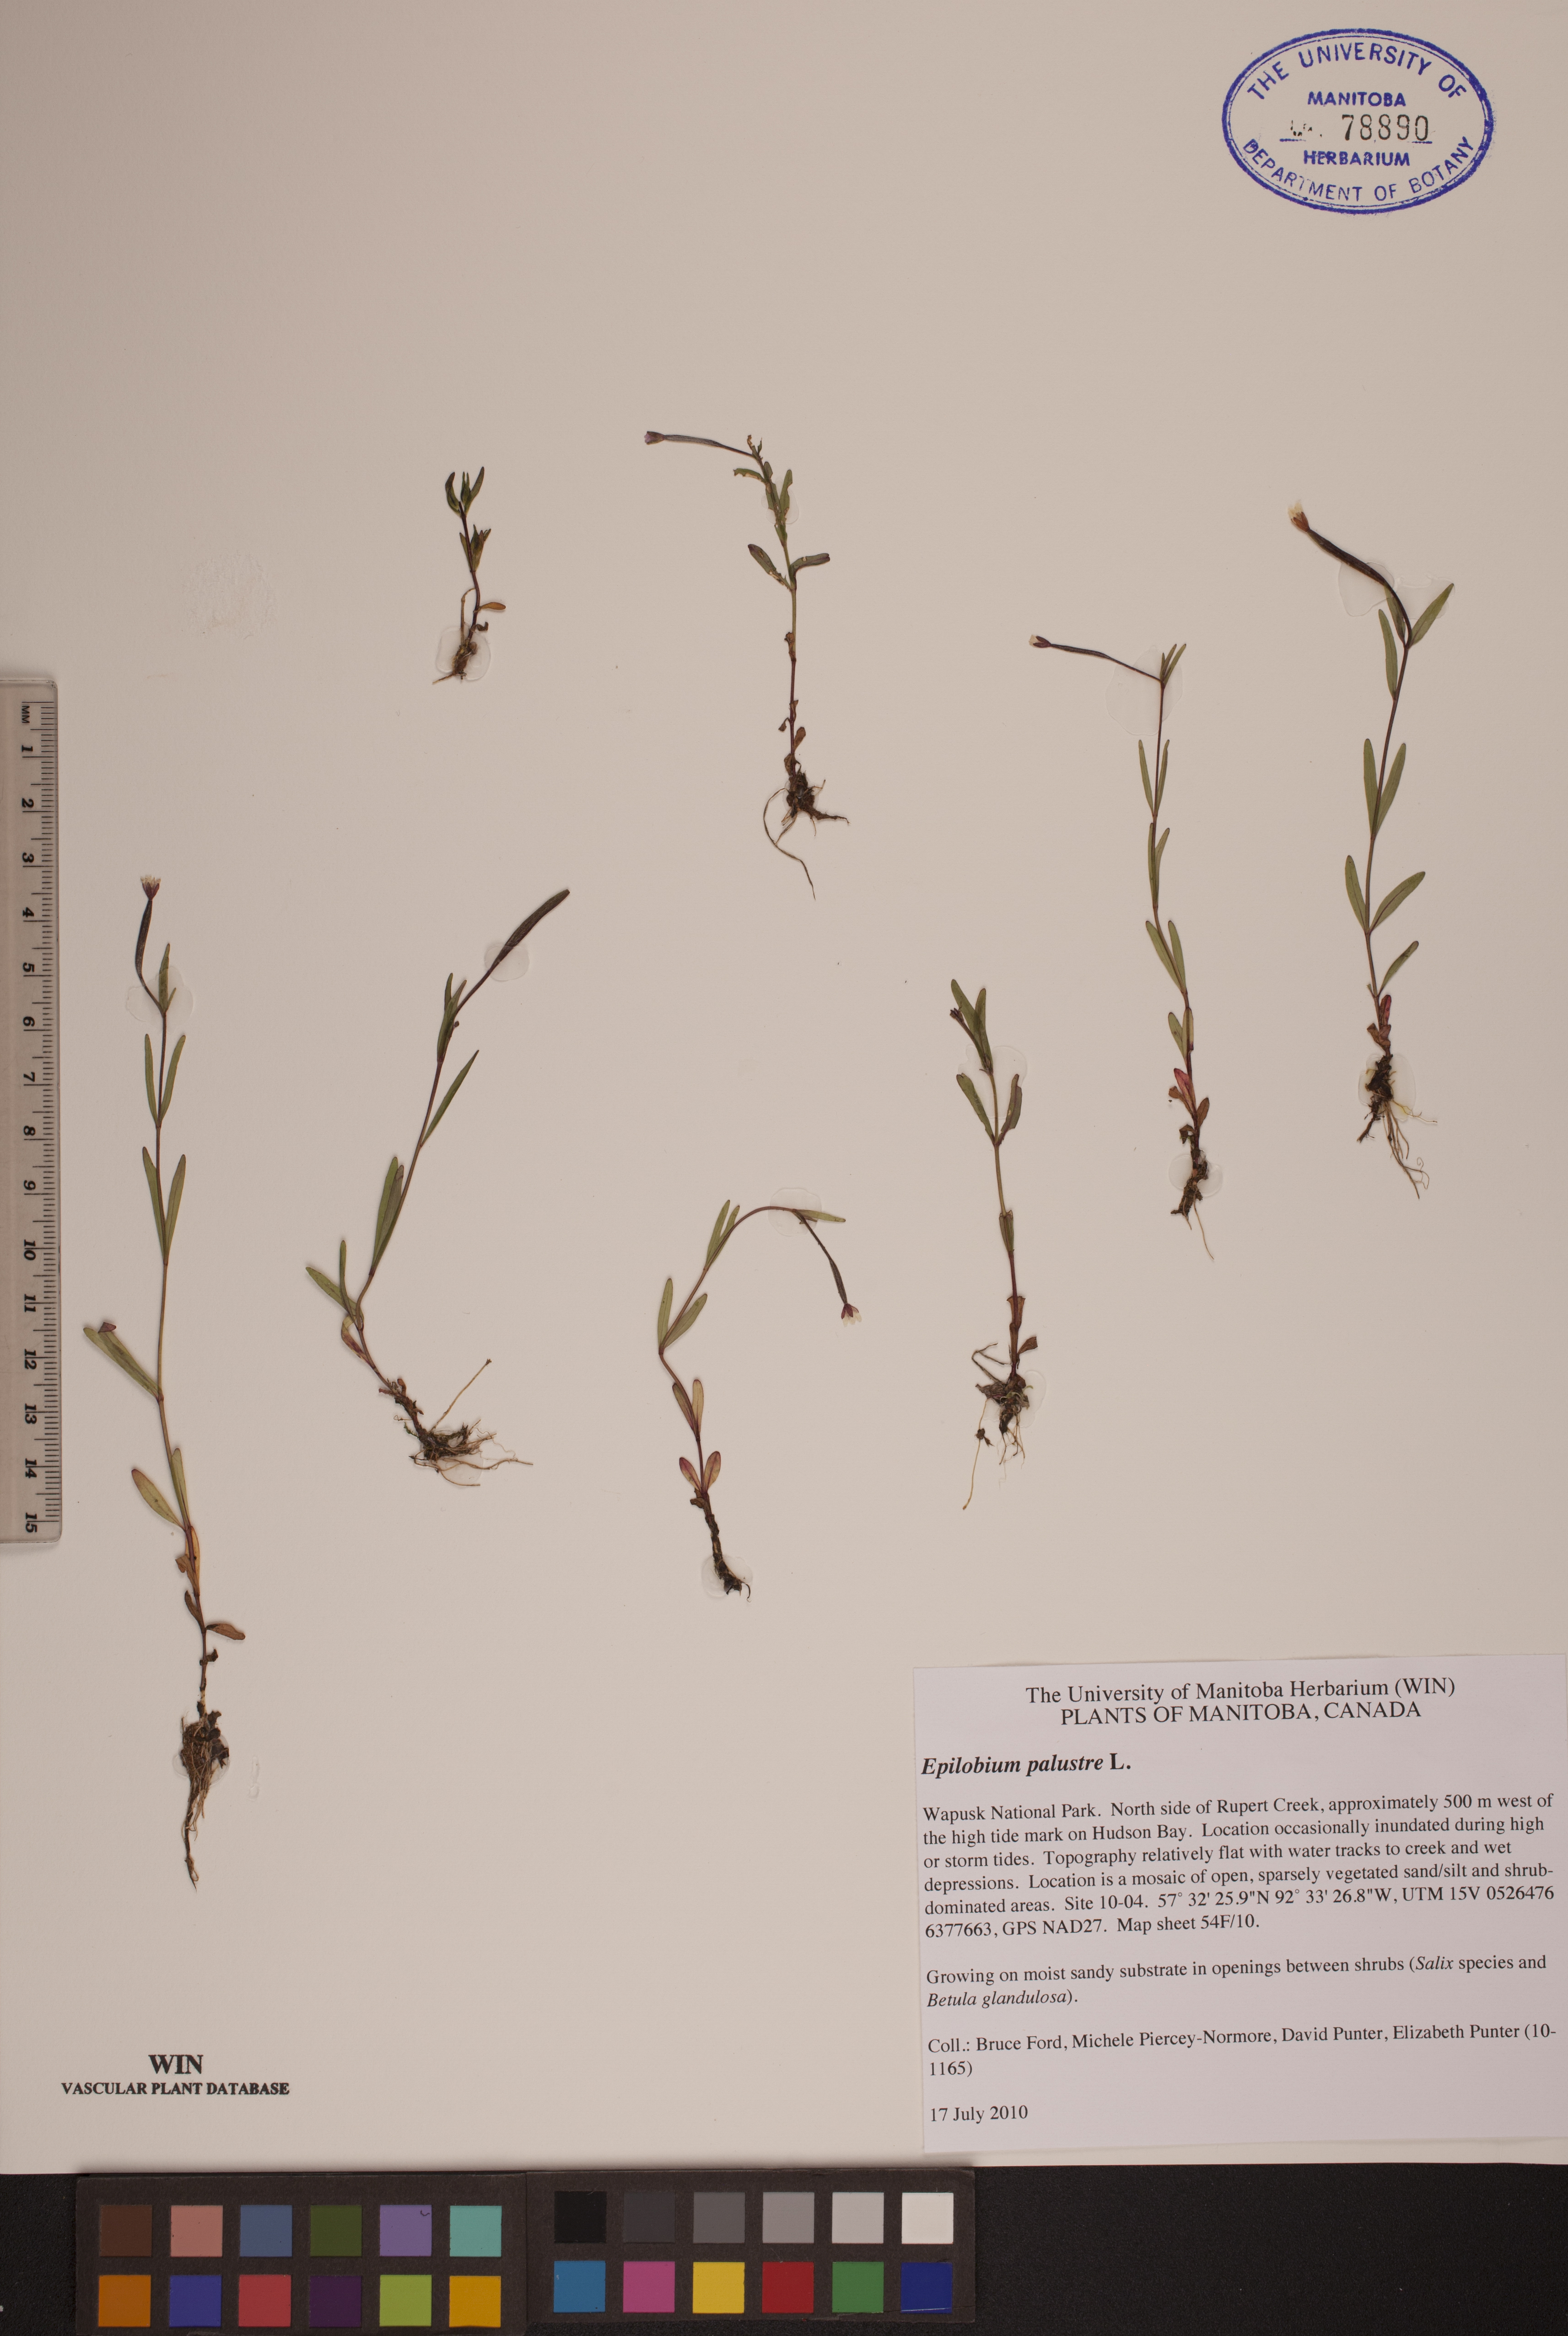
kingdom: Plantae
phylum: Tracheophyta
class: Magnoliopsida
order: Myrtales
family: Onagraceae
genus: Epilobium
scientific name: Epilobium palustre
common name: Marsh willowherb
